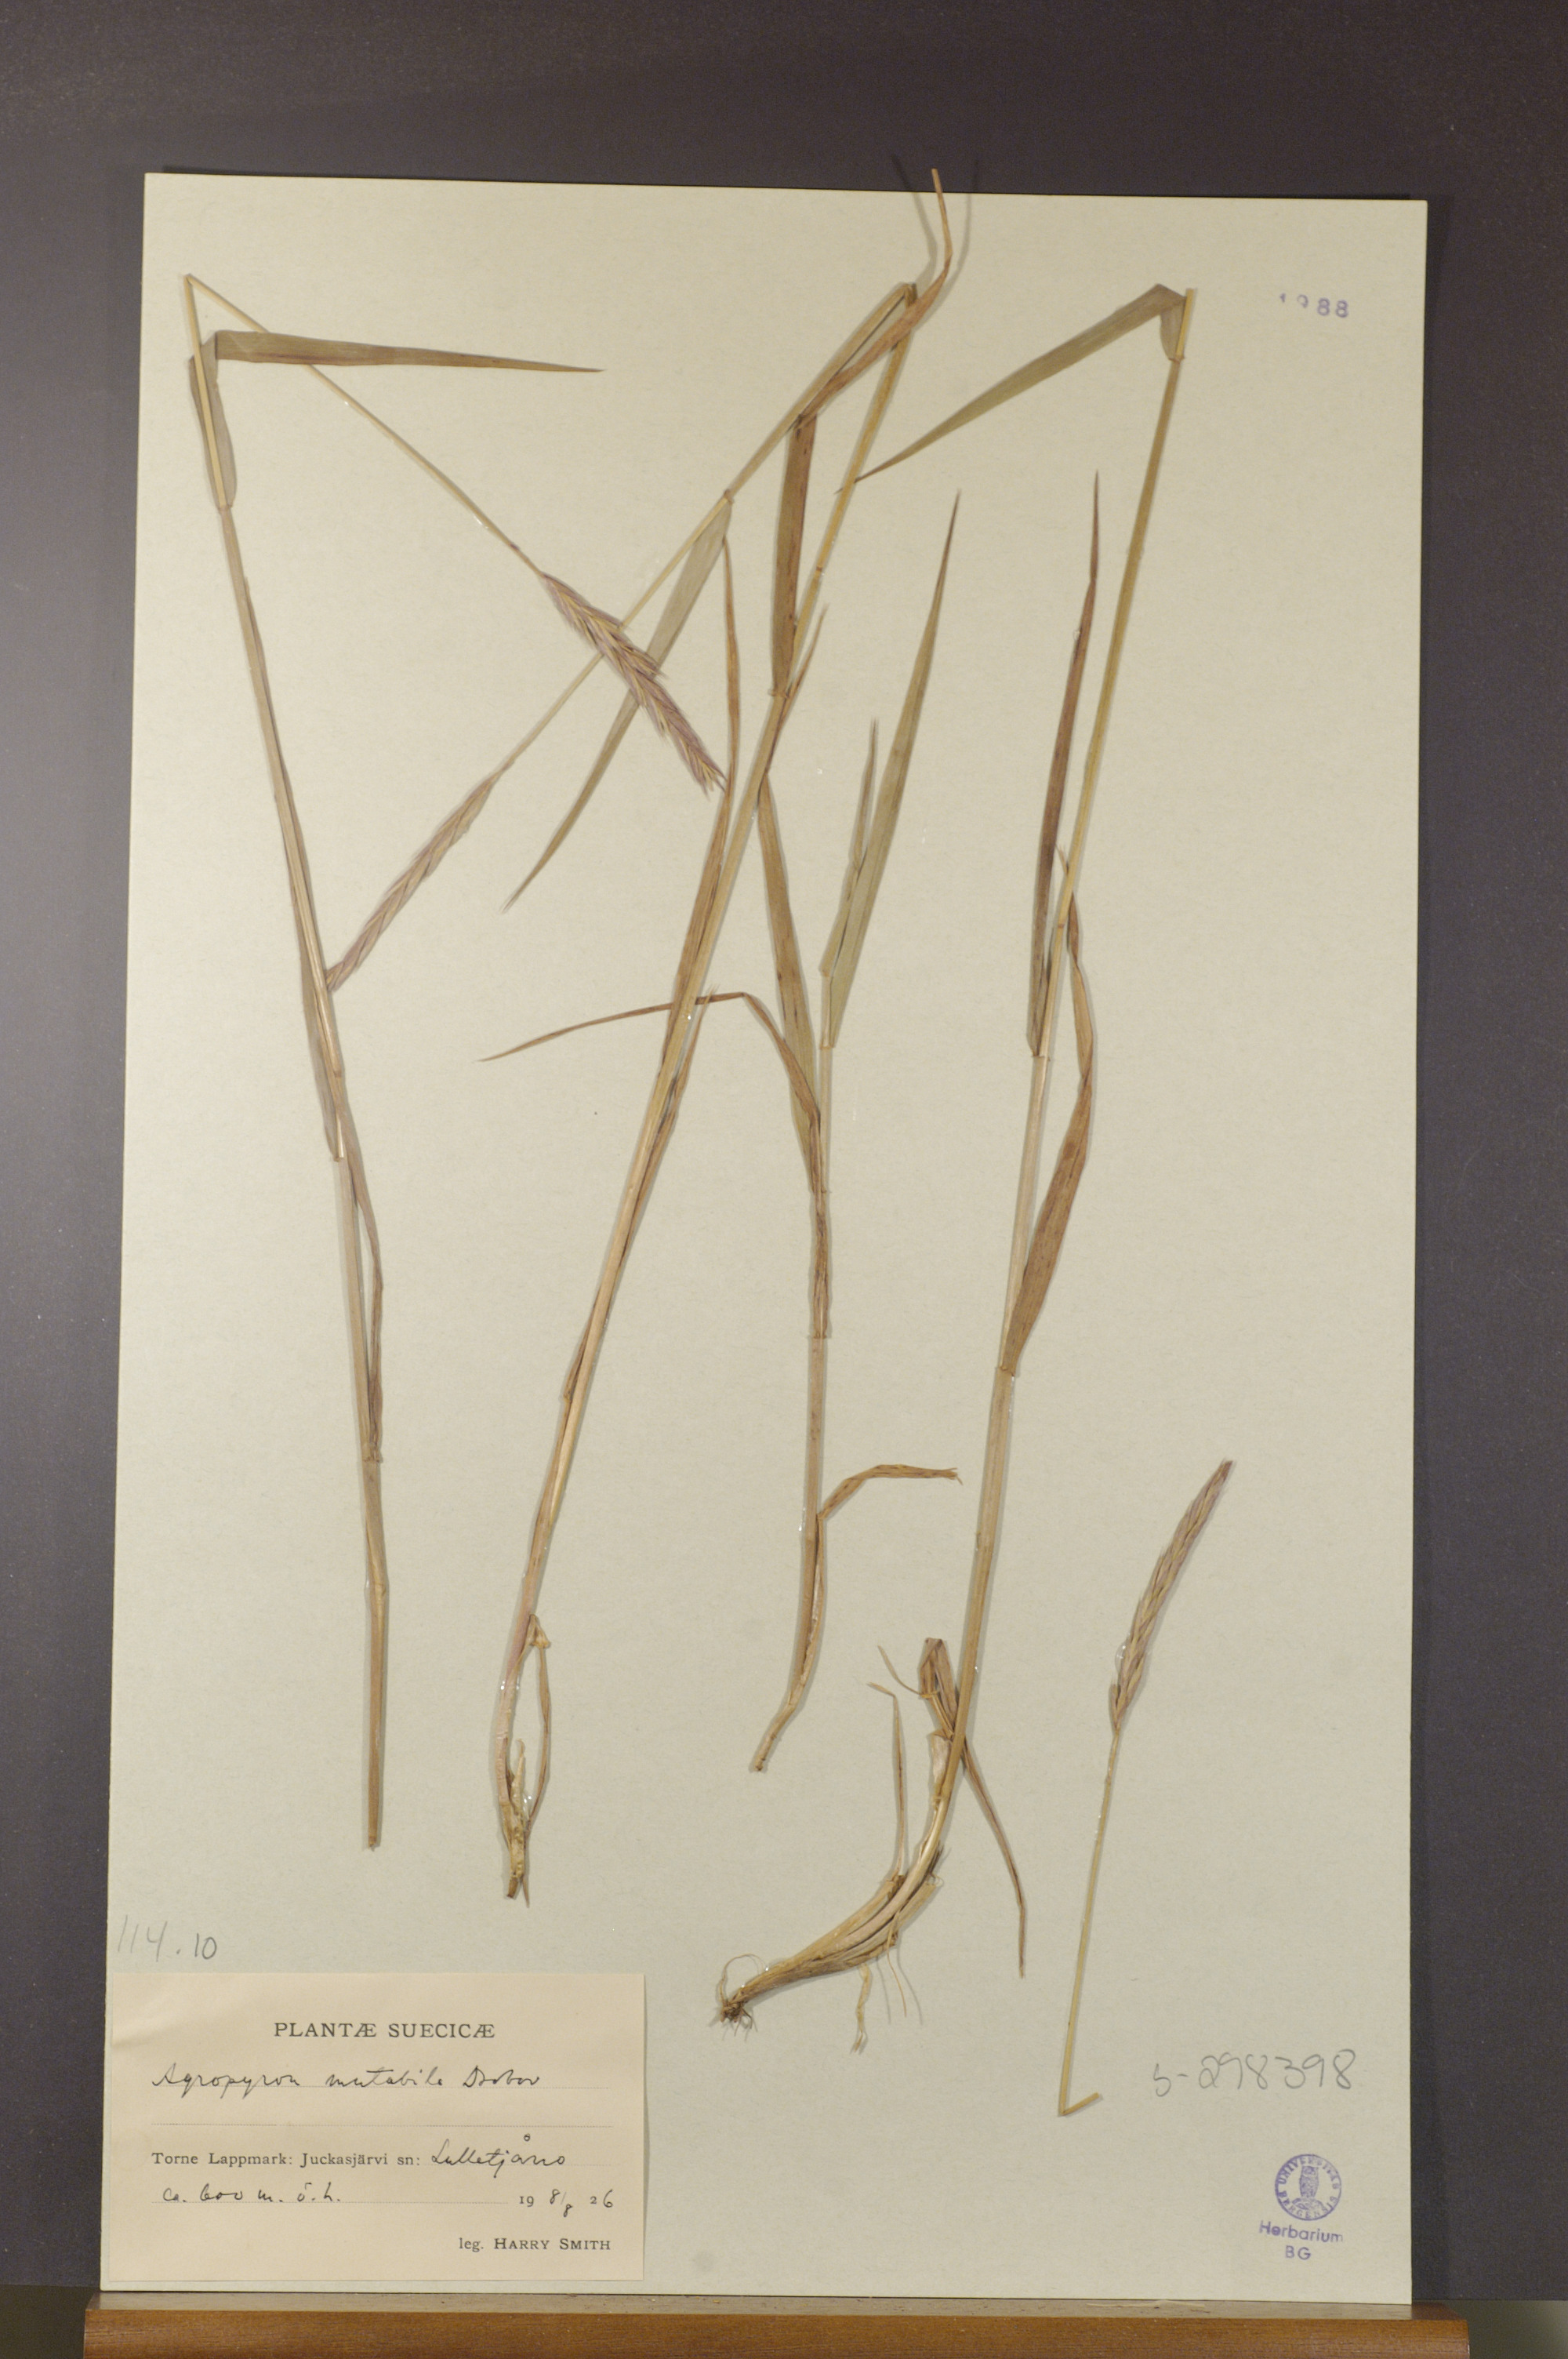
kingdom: Plantae
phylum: Tracheophyta
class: Liliopsida
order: Poales
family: Poaceae
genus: Elymus
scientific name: Elymus mutabilis
